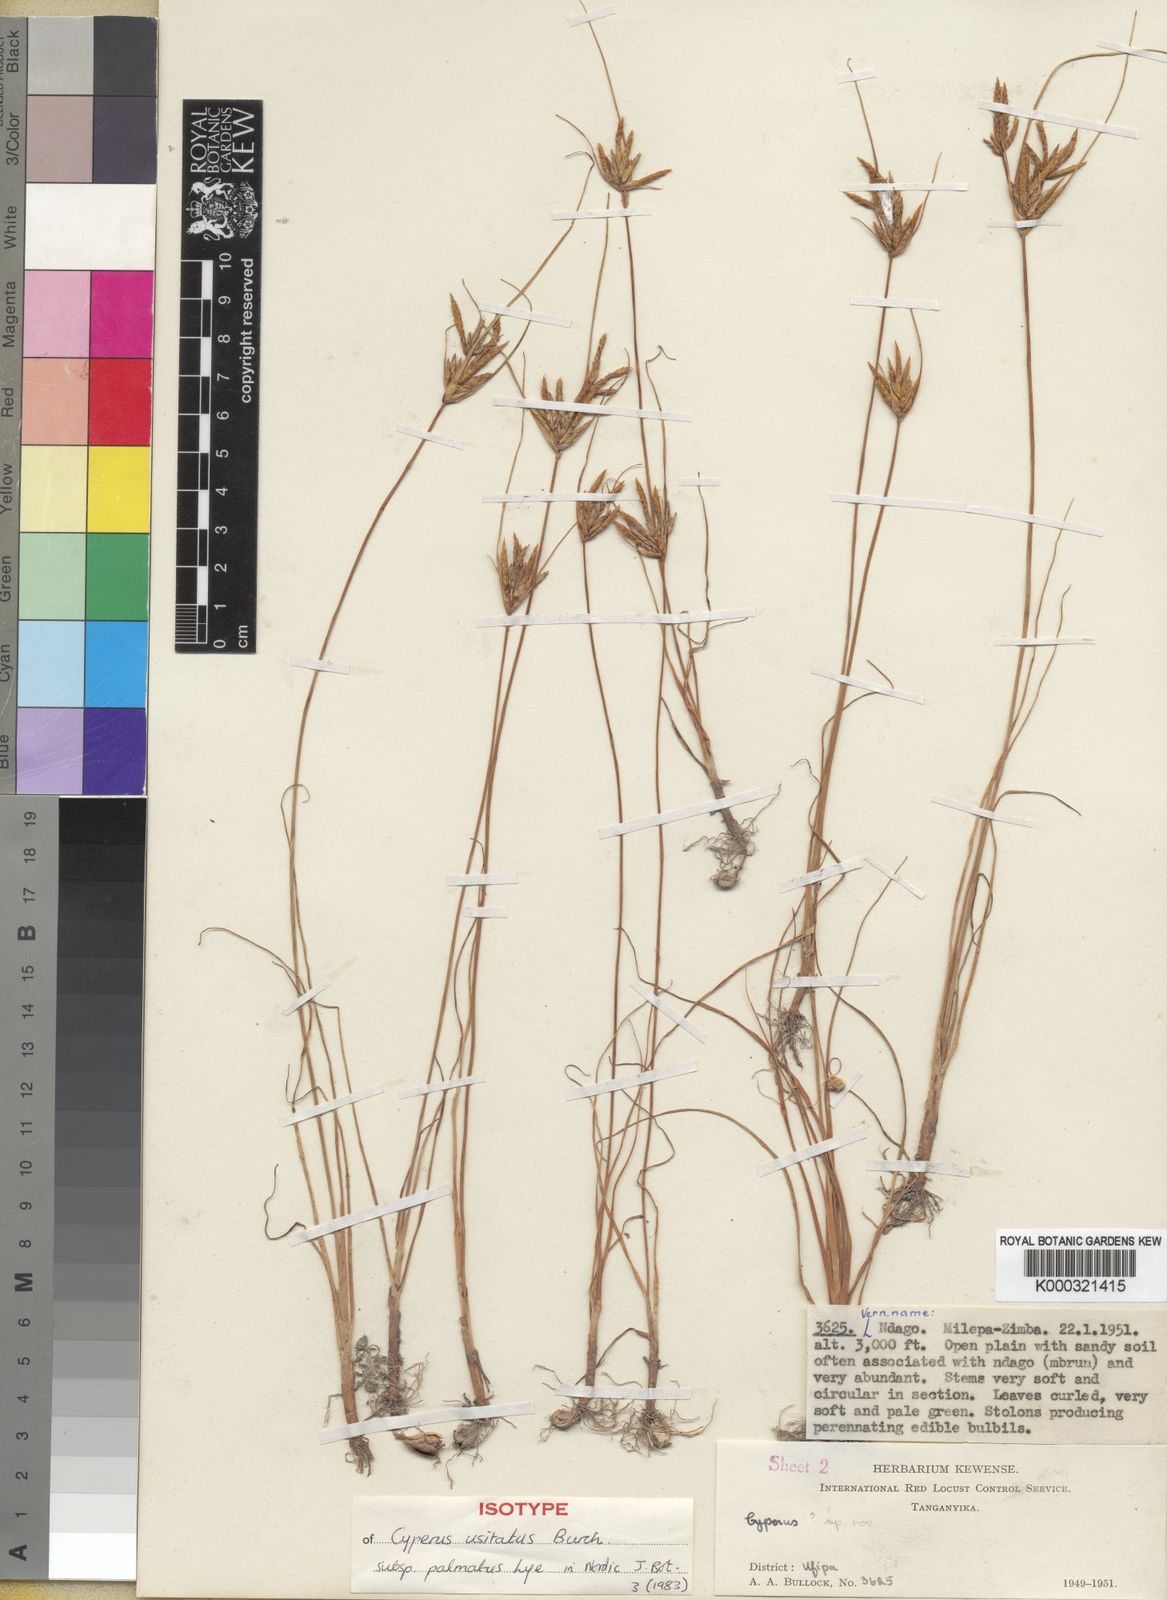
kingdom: Plantae
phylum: Tracheophyta
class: Liliopsida
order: Poales
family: Cyperaceae
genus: Cyperus
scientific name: Cyperus palmatus
